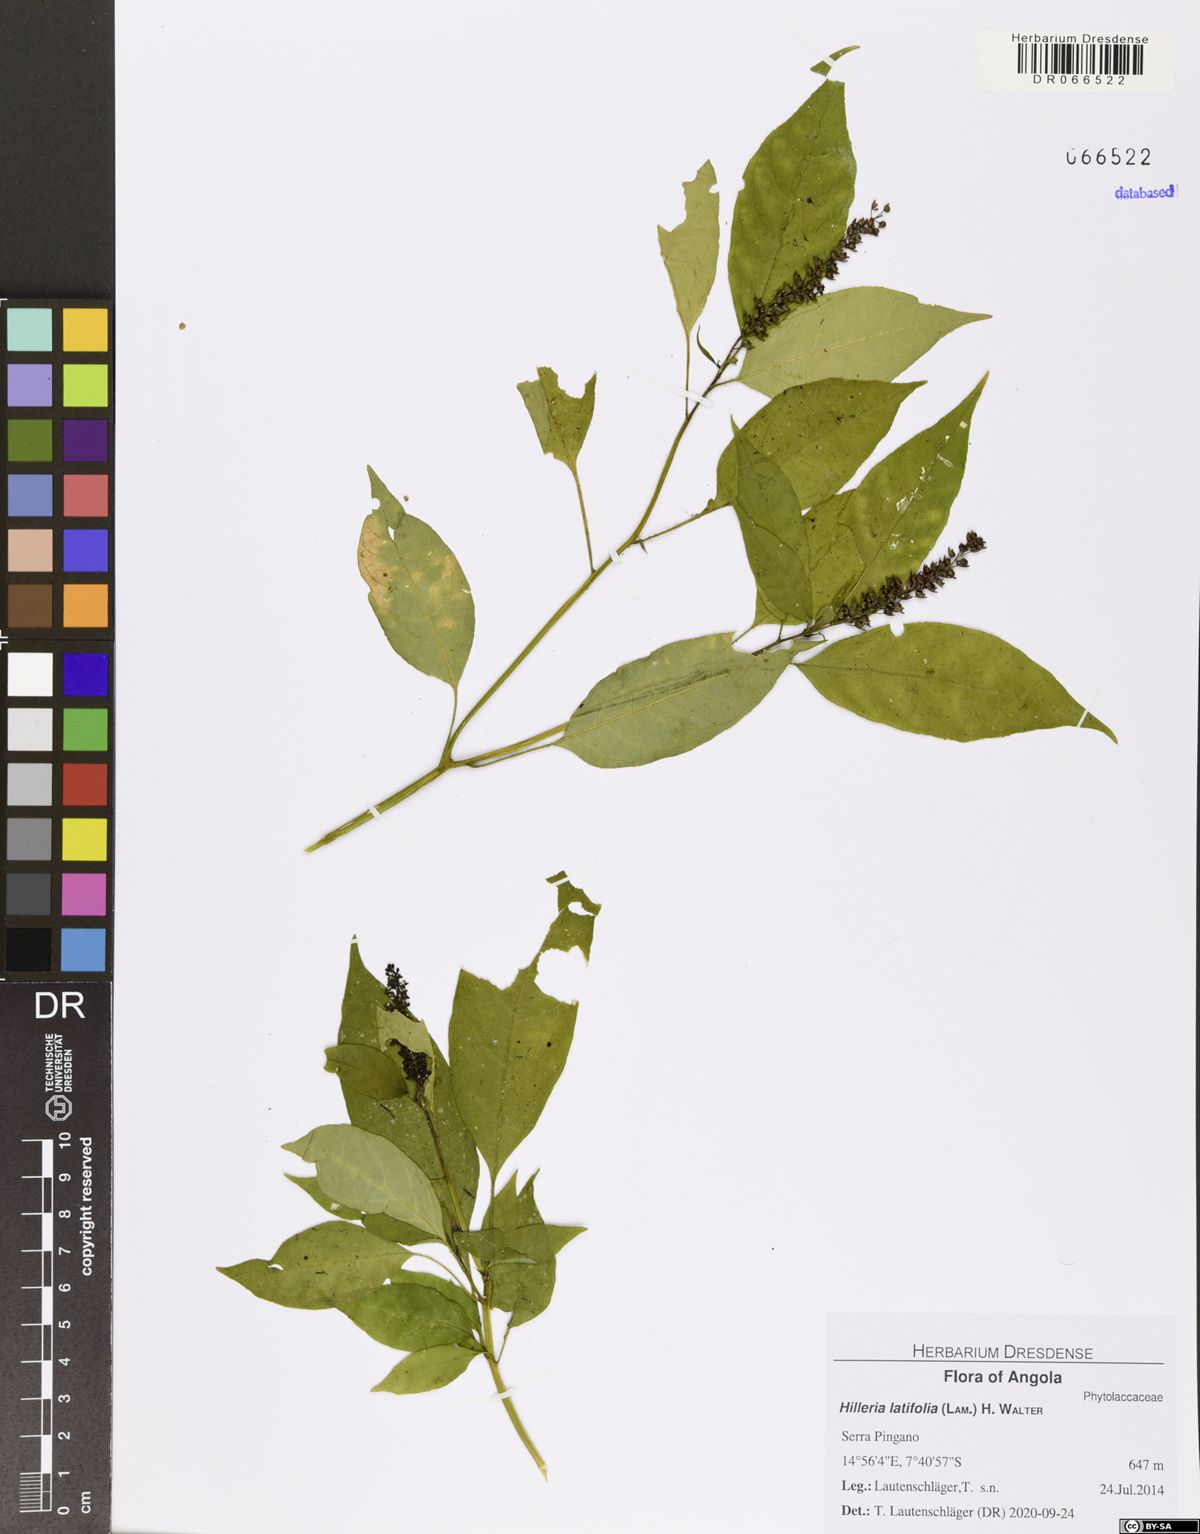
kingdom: Plantae
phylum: Tracheophyta
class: Magnoliopsida
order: Caryophyllales
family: Phytolaccaceae
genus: Hilleria
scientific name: Hilleria latifolia
